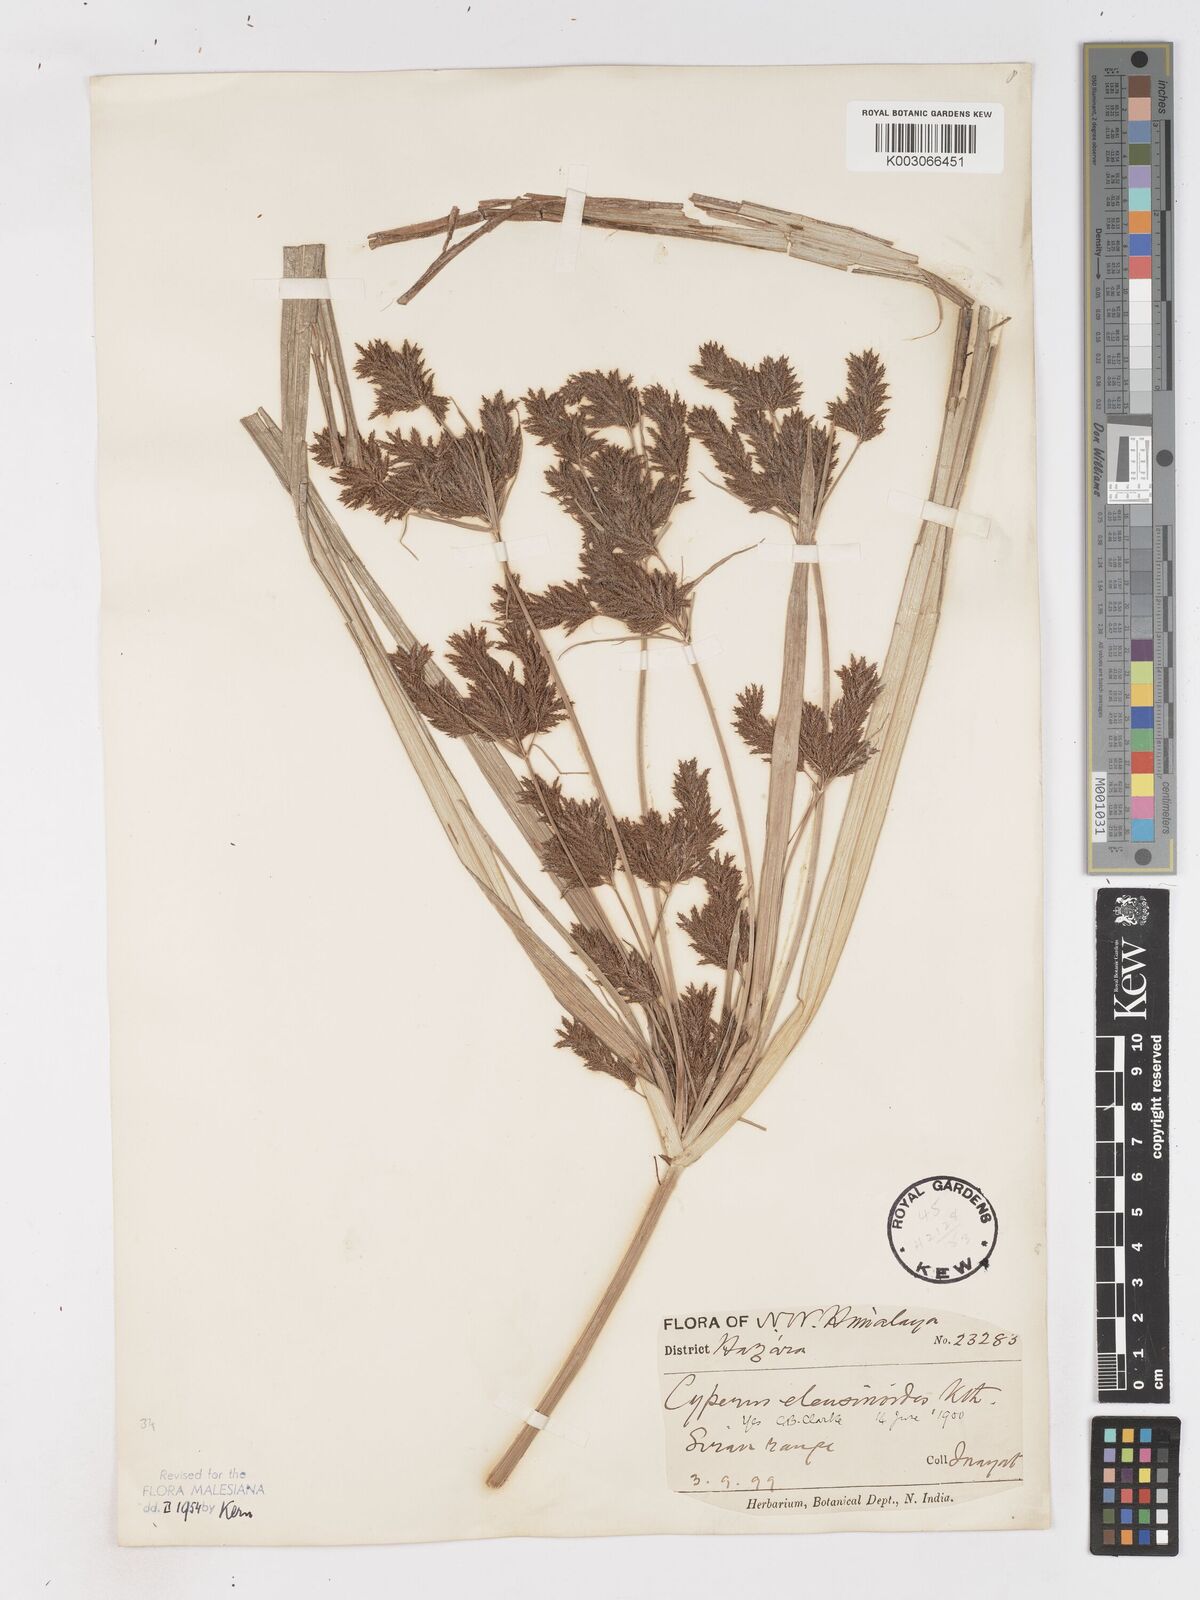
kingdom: Plantae
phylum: Tracheophyta
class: Liliopsida
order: Poales
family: Cyperaceae
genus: Cyperus
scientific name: Cyperus nutans
